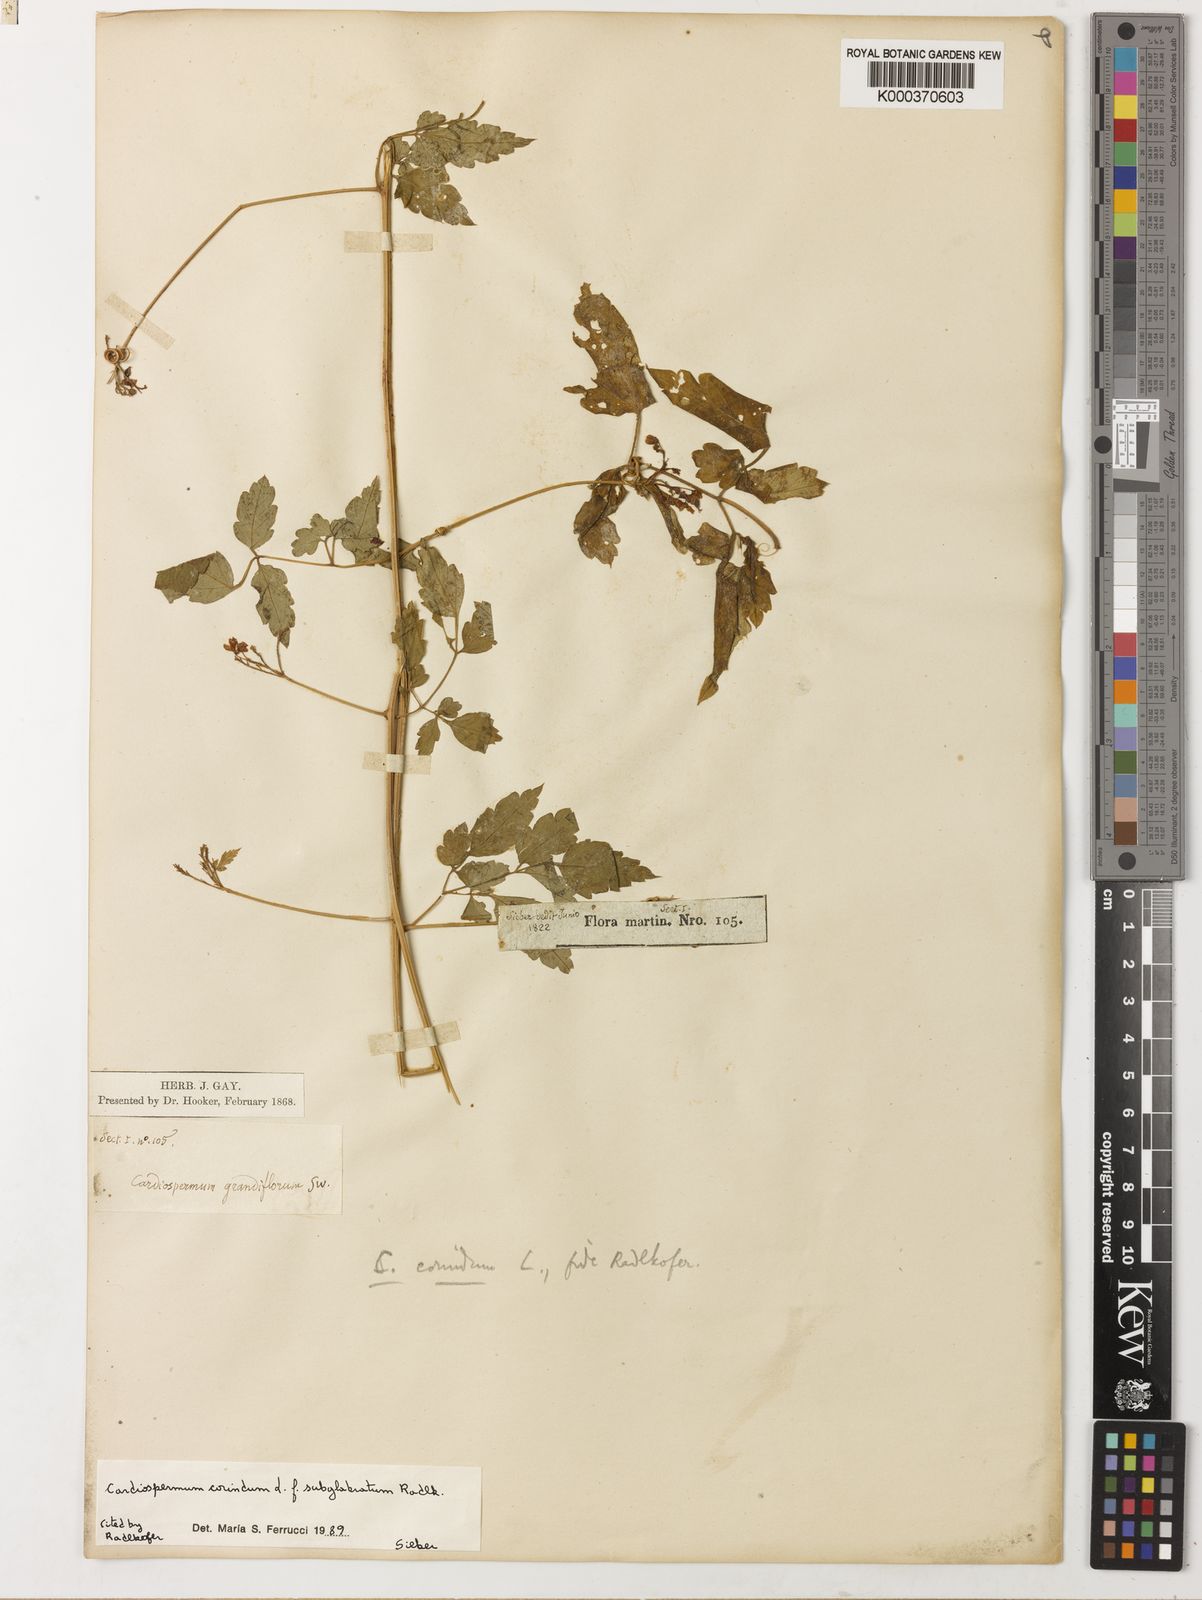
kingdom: Plantae
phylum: Tracheophyta
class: Magnoliopsida
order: Sapindales
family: Sapindaceae
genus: Cardiospermum
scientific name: Cardiospermum corindum
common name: Faux persil
